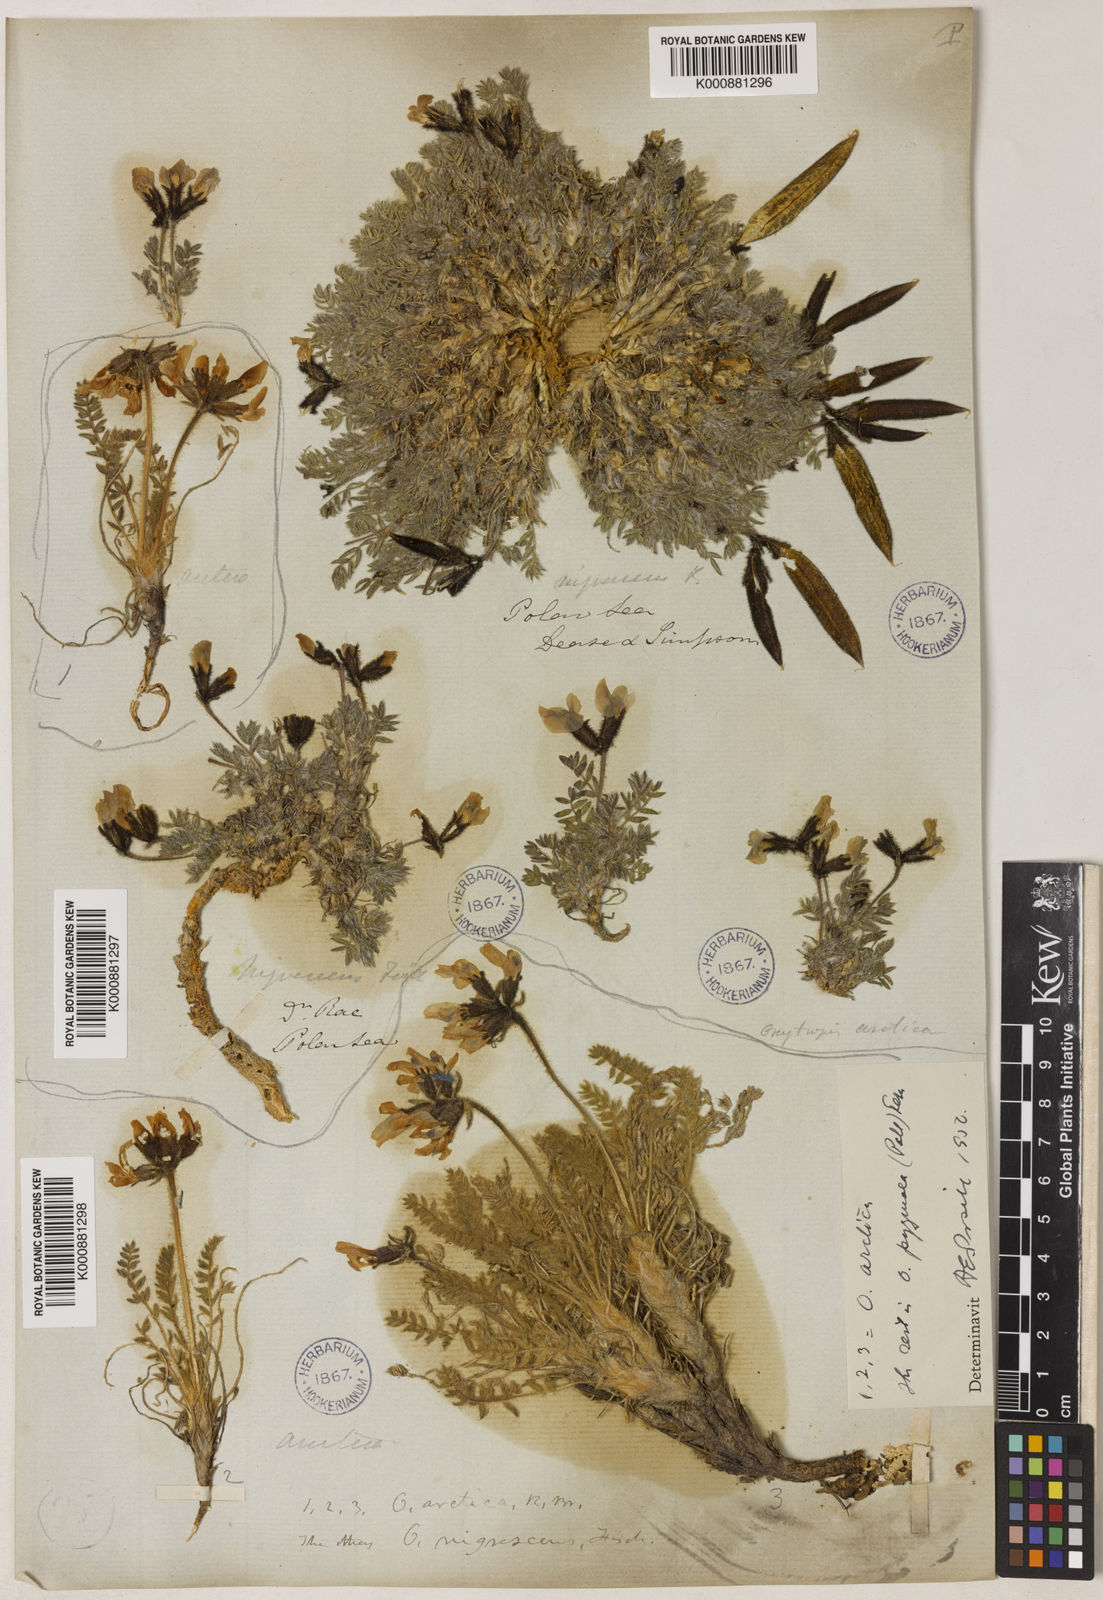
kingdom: Plantae
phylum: Tracheophyta
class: Magnoliopsida
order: Fabales
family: Fabaceae
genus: Oxytropis
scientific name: Oxytropis nigrescens
